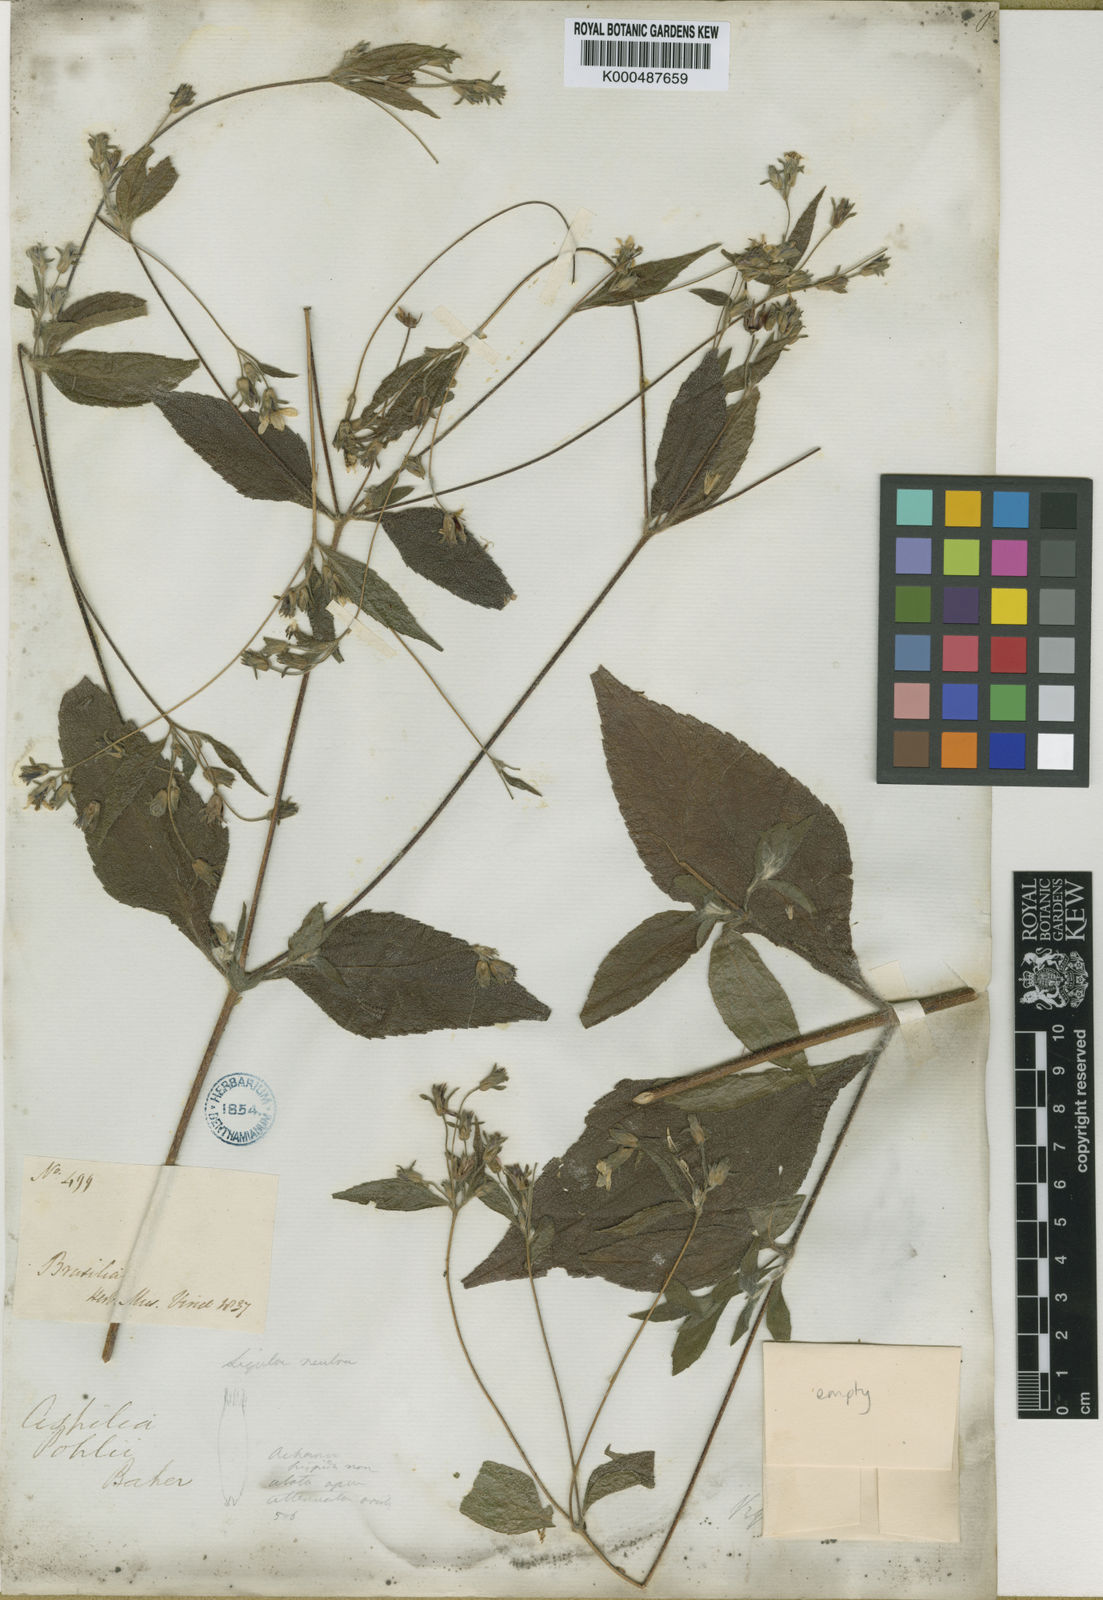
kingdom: Plantae
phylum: Tracheophyta
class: Magnoliopsida
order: Asterales
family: Asteraceae
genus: Aspilia
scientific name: Aspilia pohlii
